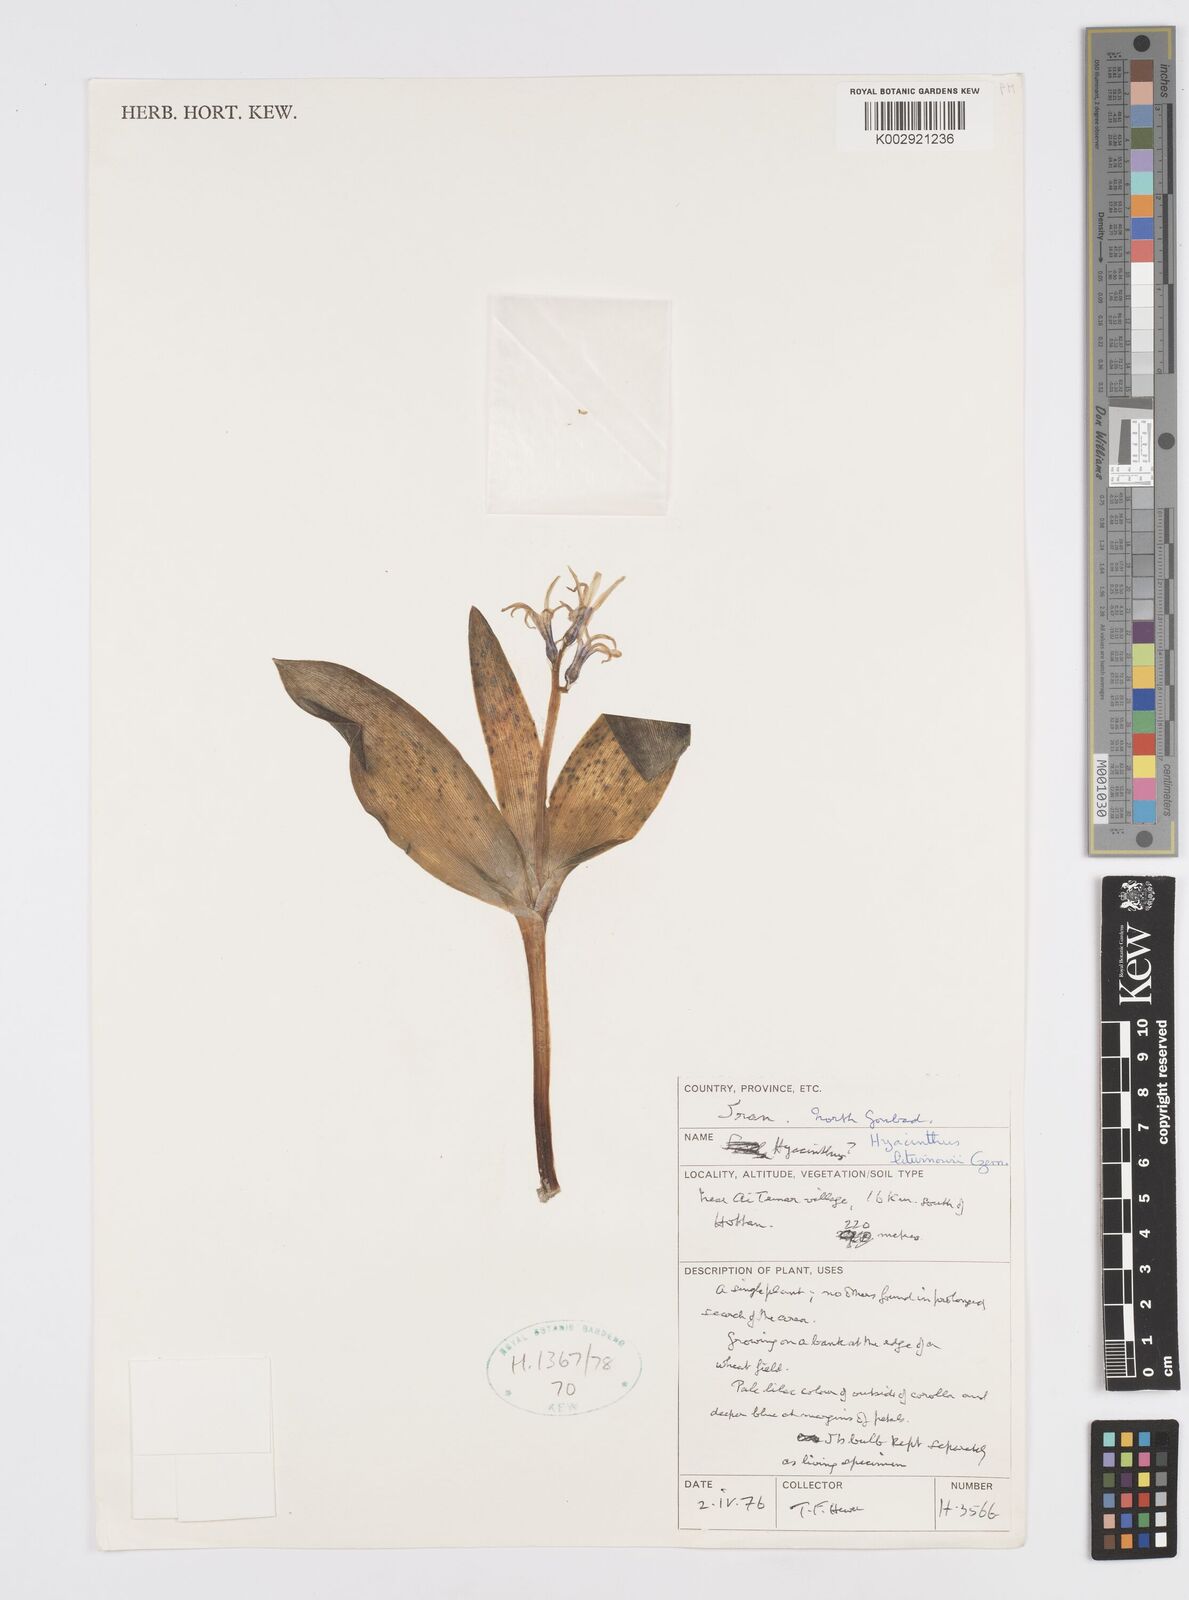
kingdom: Plantae
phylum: Tracheophyta
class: Liliopsida
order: Asparagales
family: Asparagaceae
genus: Hyacinthus
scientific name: Hyacinthus litwinowii
